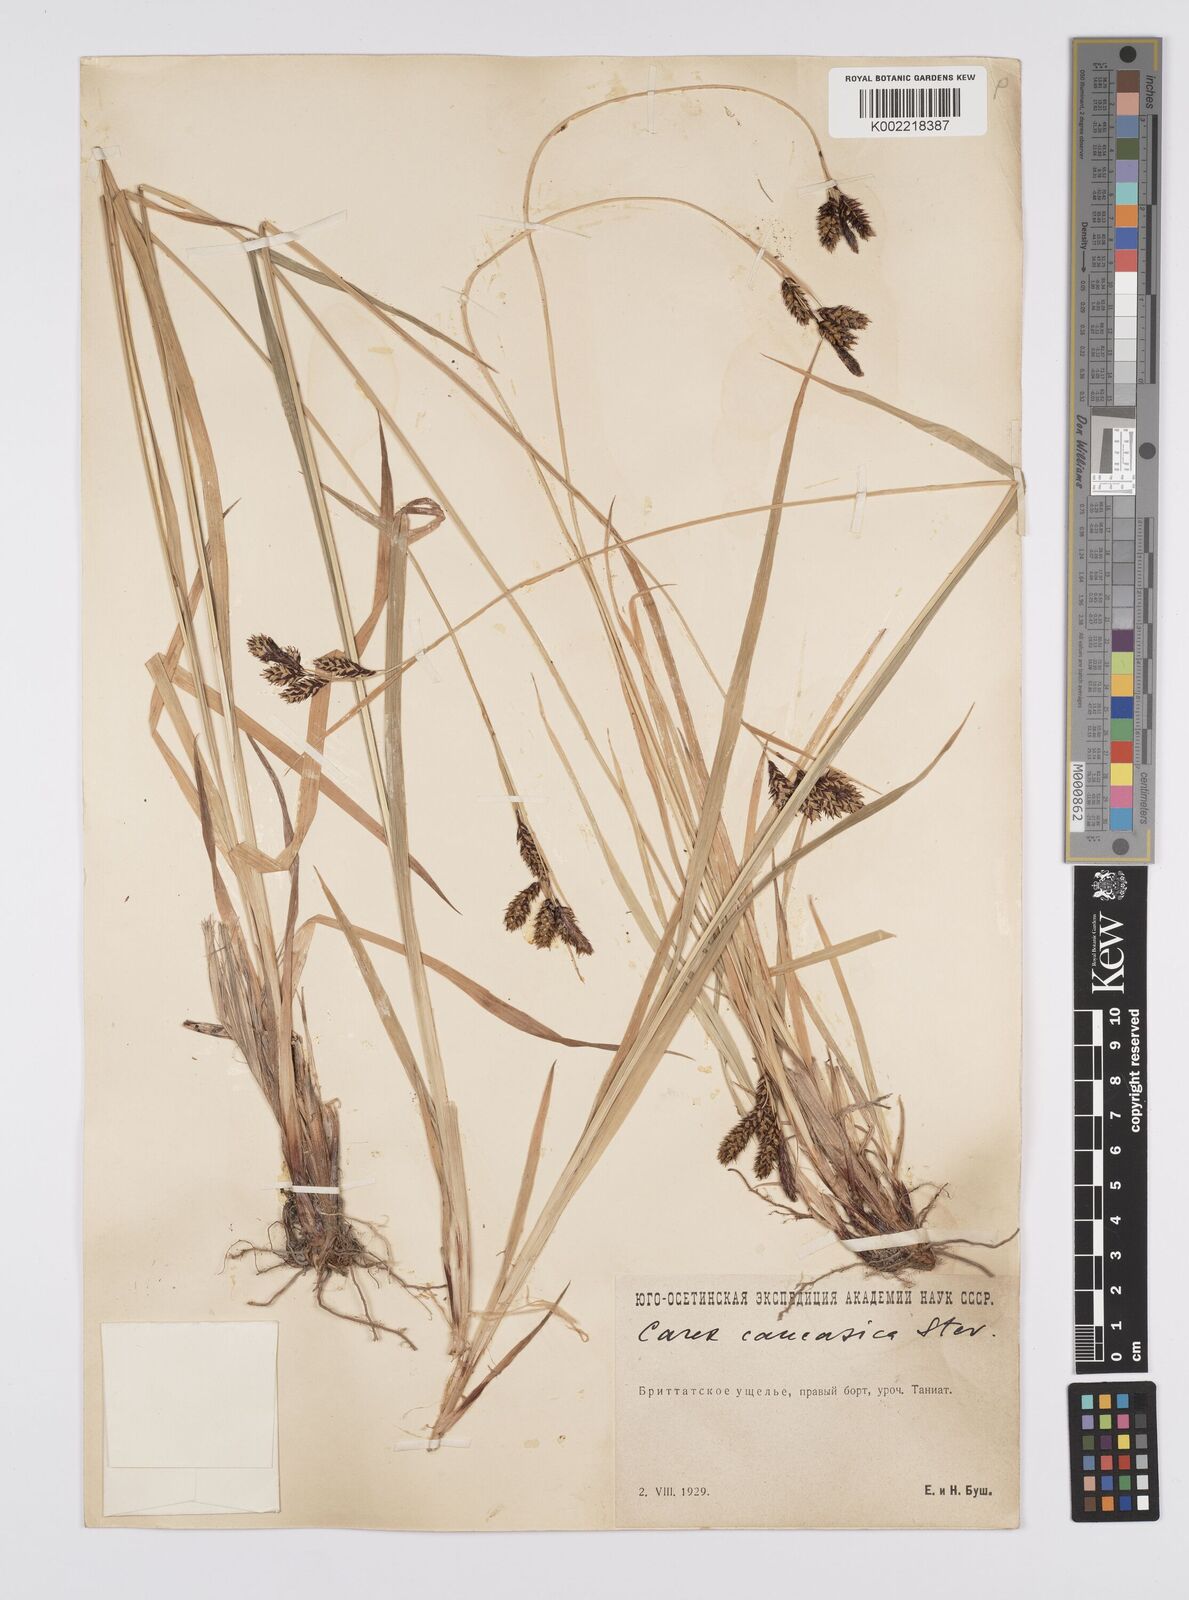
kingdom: Plantae
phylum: Tracheophyta
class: Liliopsida
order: Poales
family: Cyperaceae
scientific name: Cyperaceae
